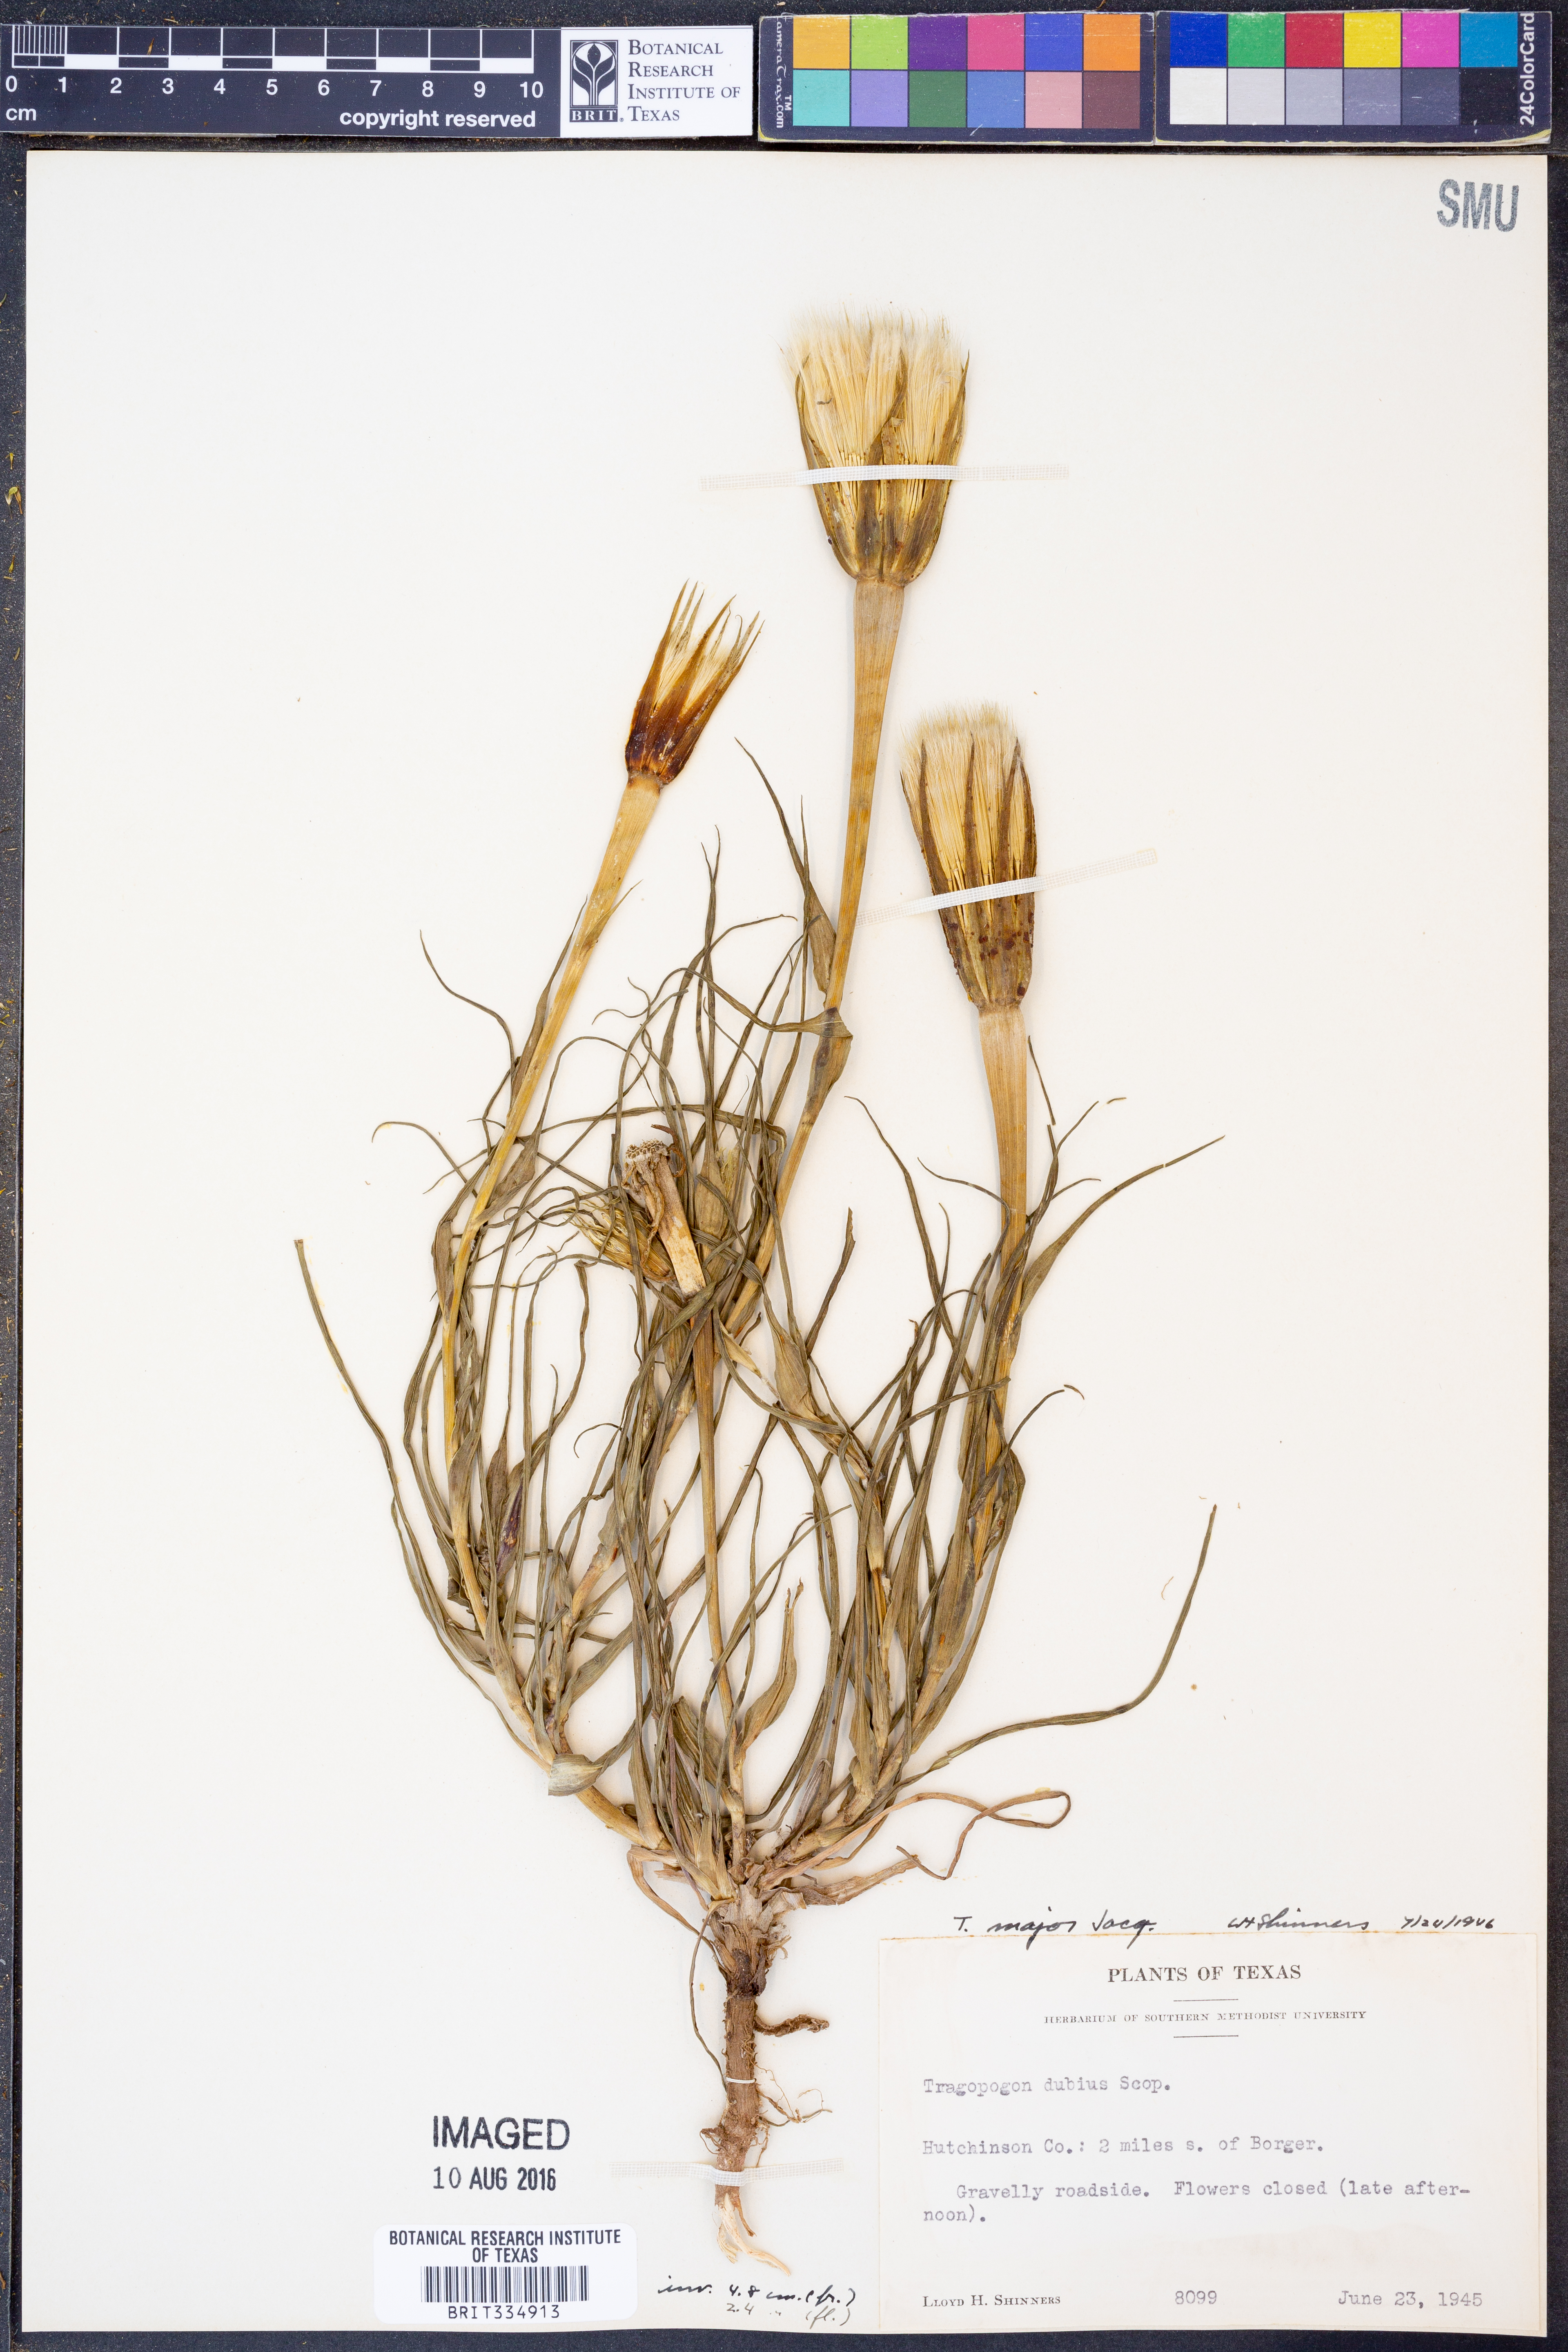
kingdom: Plantae
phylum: Tracheophyta
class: Magnoliopsida
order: Asterales
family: Asteraceae
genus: Tragopogon
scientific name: Tragopogon dubius
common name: Yellow salsify
